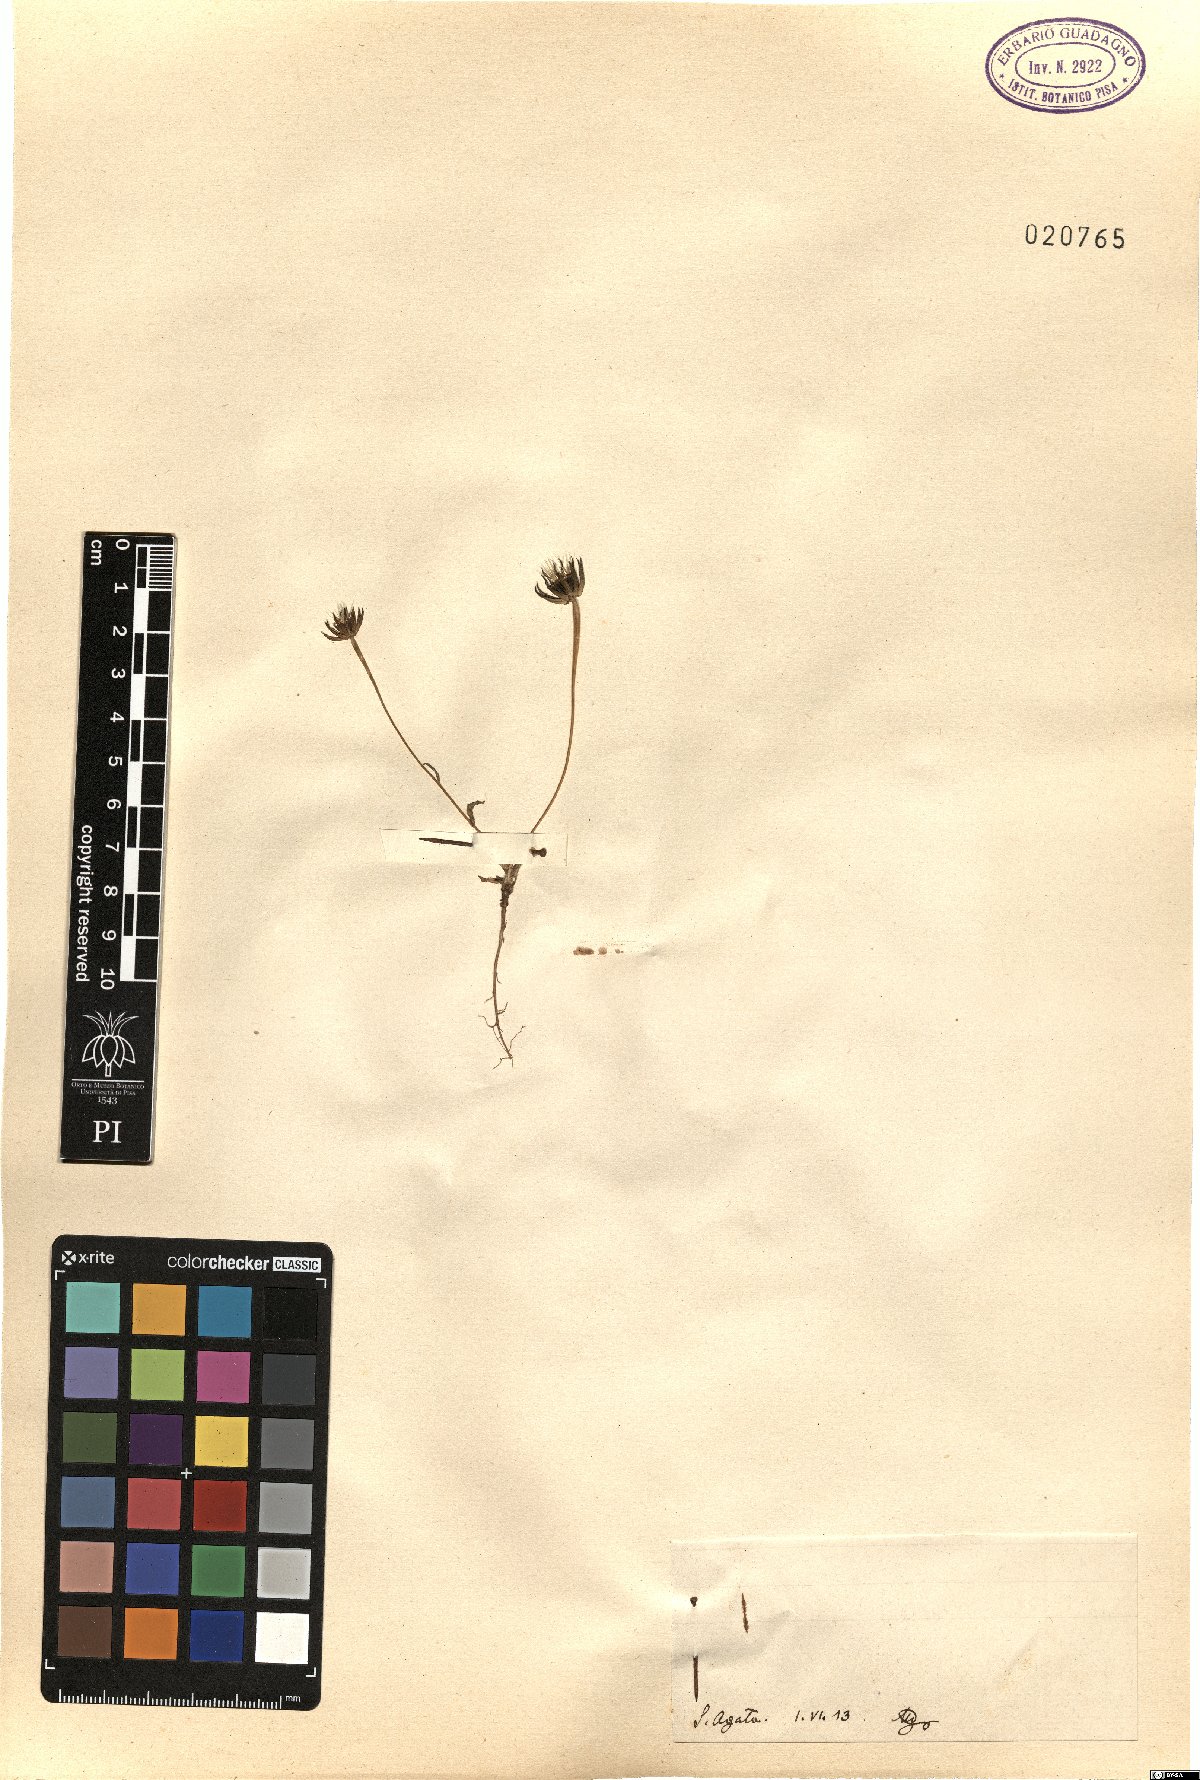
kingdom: Plantae
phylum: Tracheophyta
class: Magnoliopsida
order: Asterales
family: Asteraceae
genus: Rhagadiolus
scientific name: Rhagadiolus
